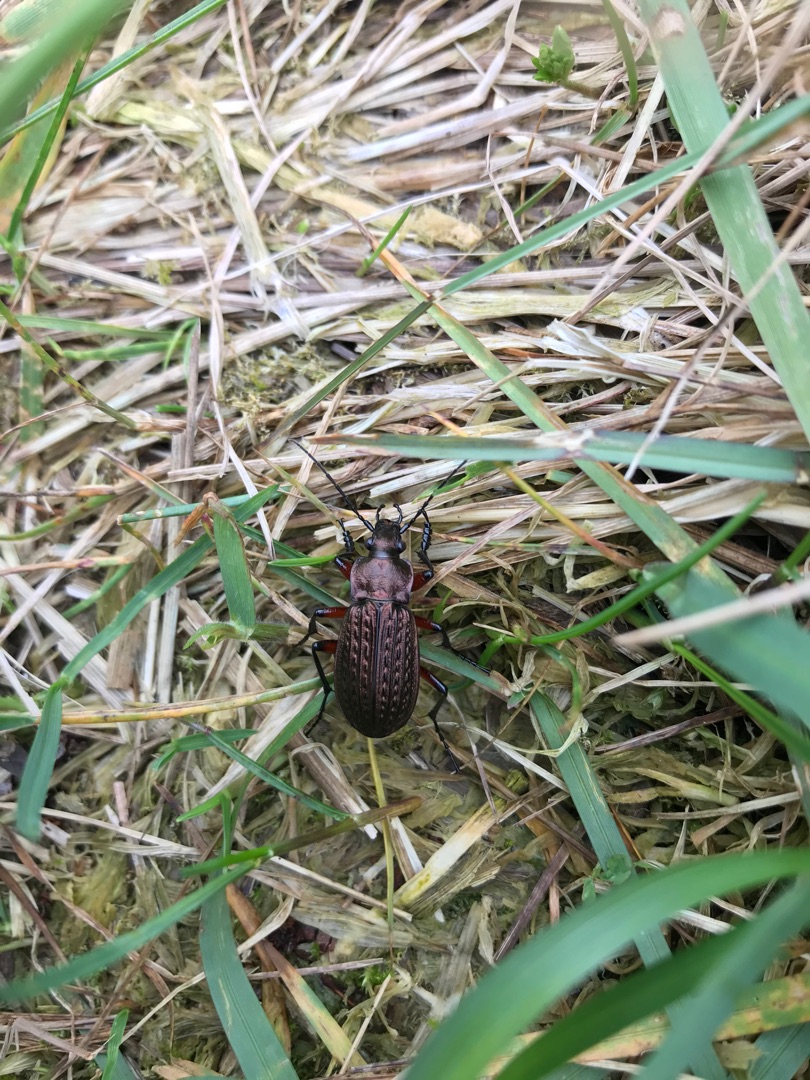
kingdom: Animalia
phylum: Arthropoda
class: Insecta
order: Coleoptera
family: Carabidae
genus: Carabus
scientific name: Carabus granulatus
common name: Kornet løber
